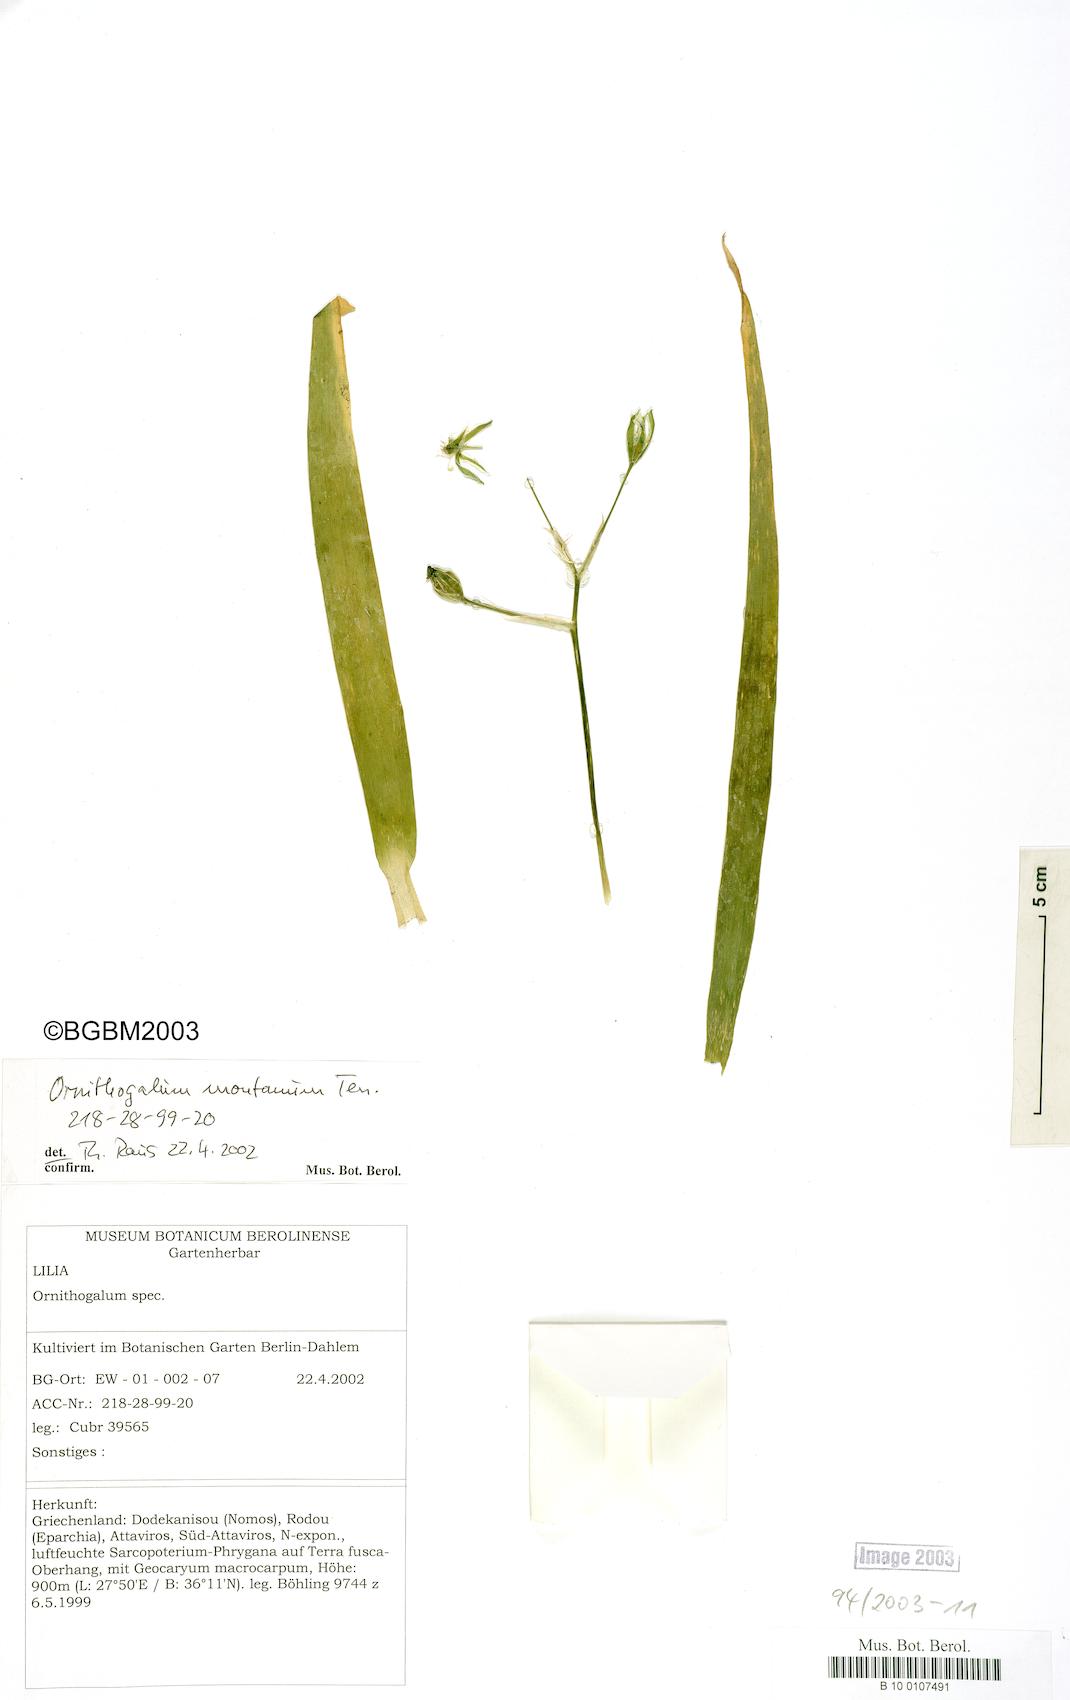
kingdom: Plantae
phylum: Tracheophyta
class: Liliopsida
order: Asparagales
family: Asparagaceae
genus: Ornithogalum
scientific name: Ornithogalum montanum
